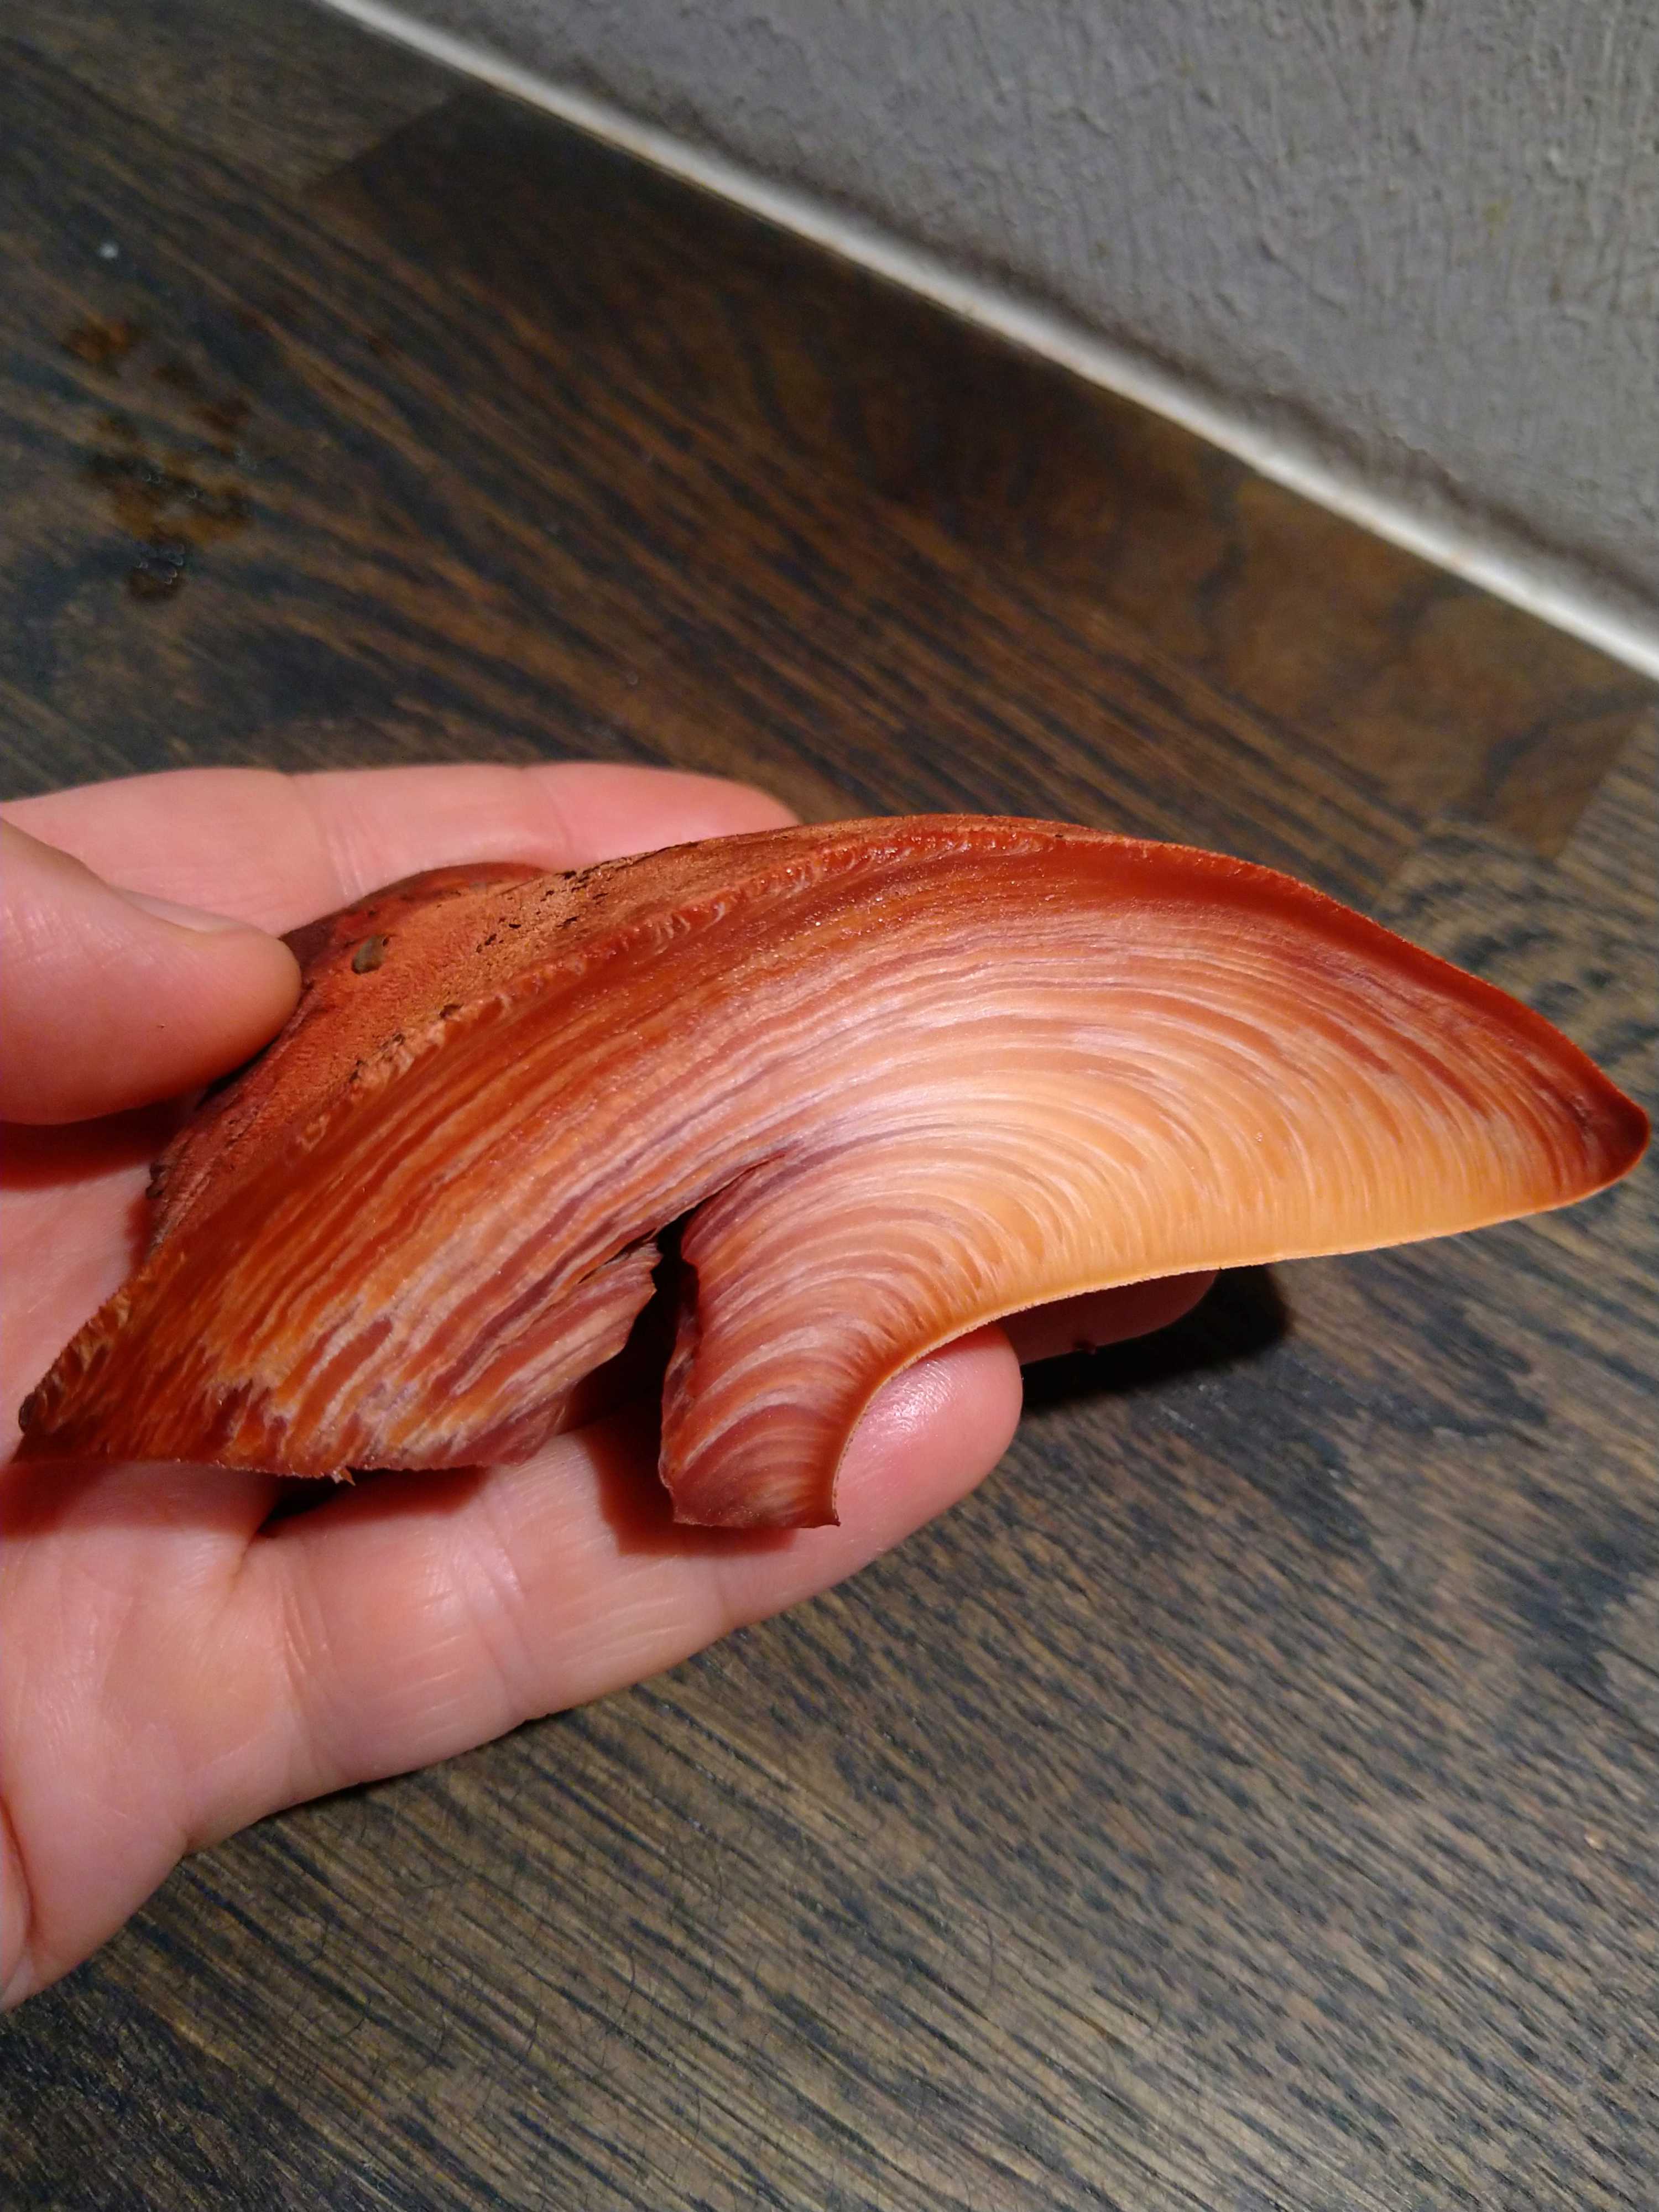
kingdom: Fungi
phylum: Basidiomycota
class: Agaricomycetes
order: Agaricales
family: Fistulinaceae
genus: Fistulina
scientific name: Fistulina hepatica
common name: oksetunge
